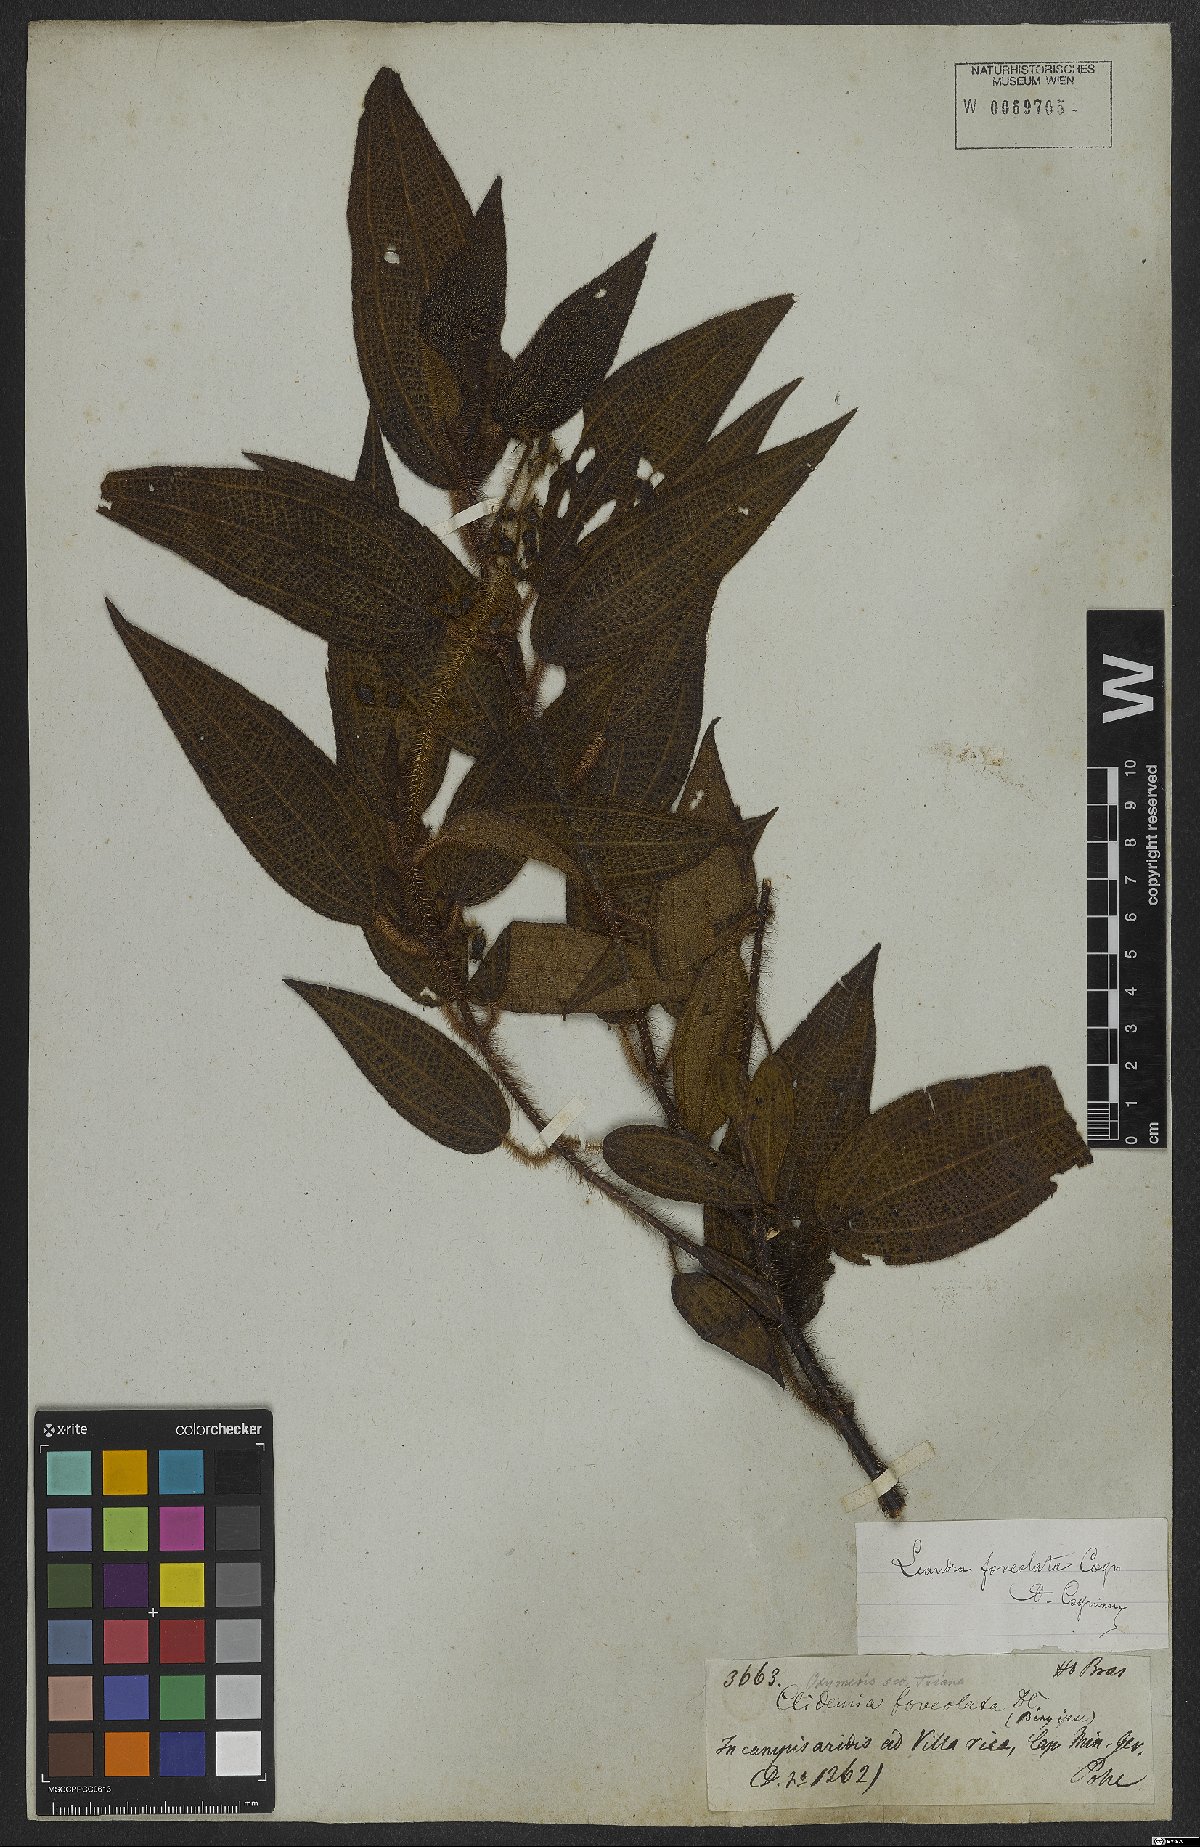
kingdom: Plantae
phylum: Tracheophyta
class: Magnoliopsida
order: Myrtales
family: Melastomataceae
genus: Miconia
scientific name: Miconia leafoveolata
